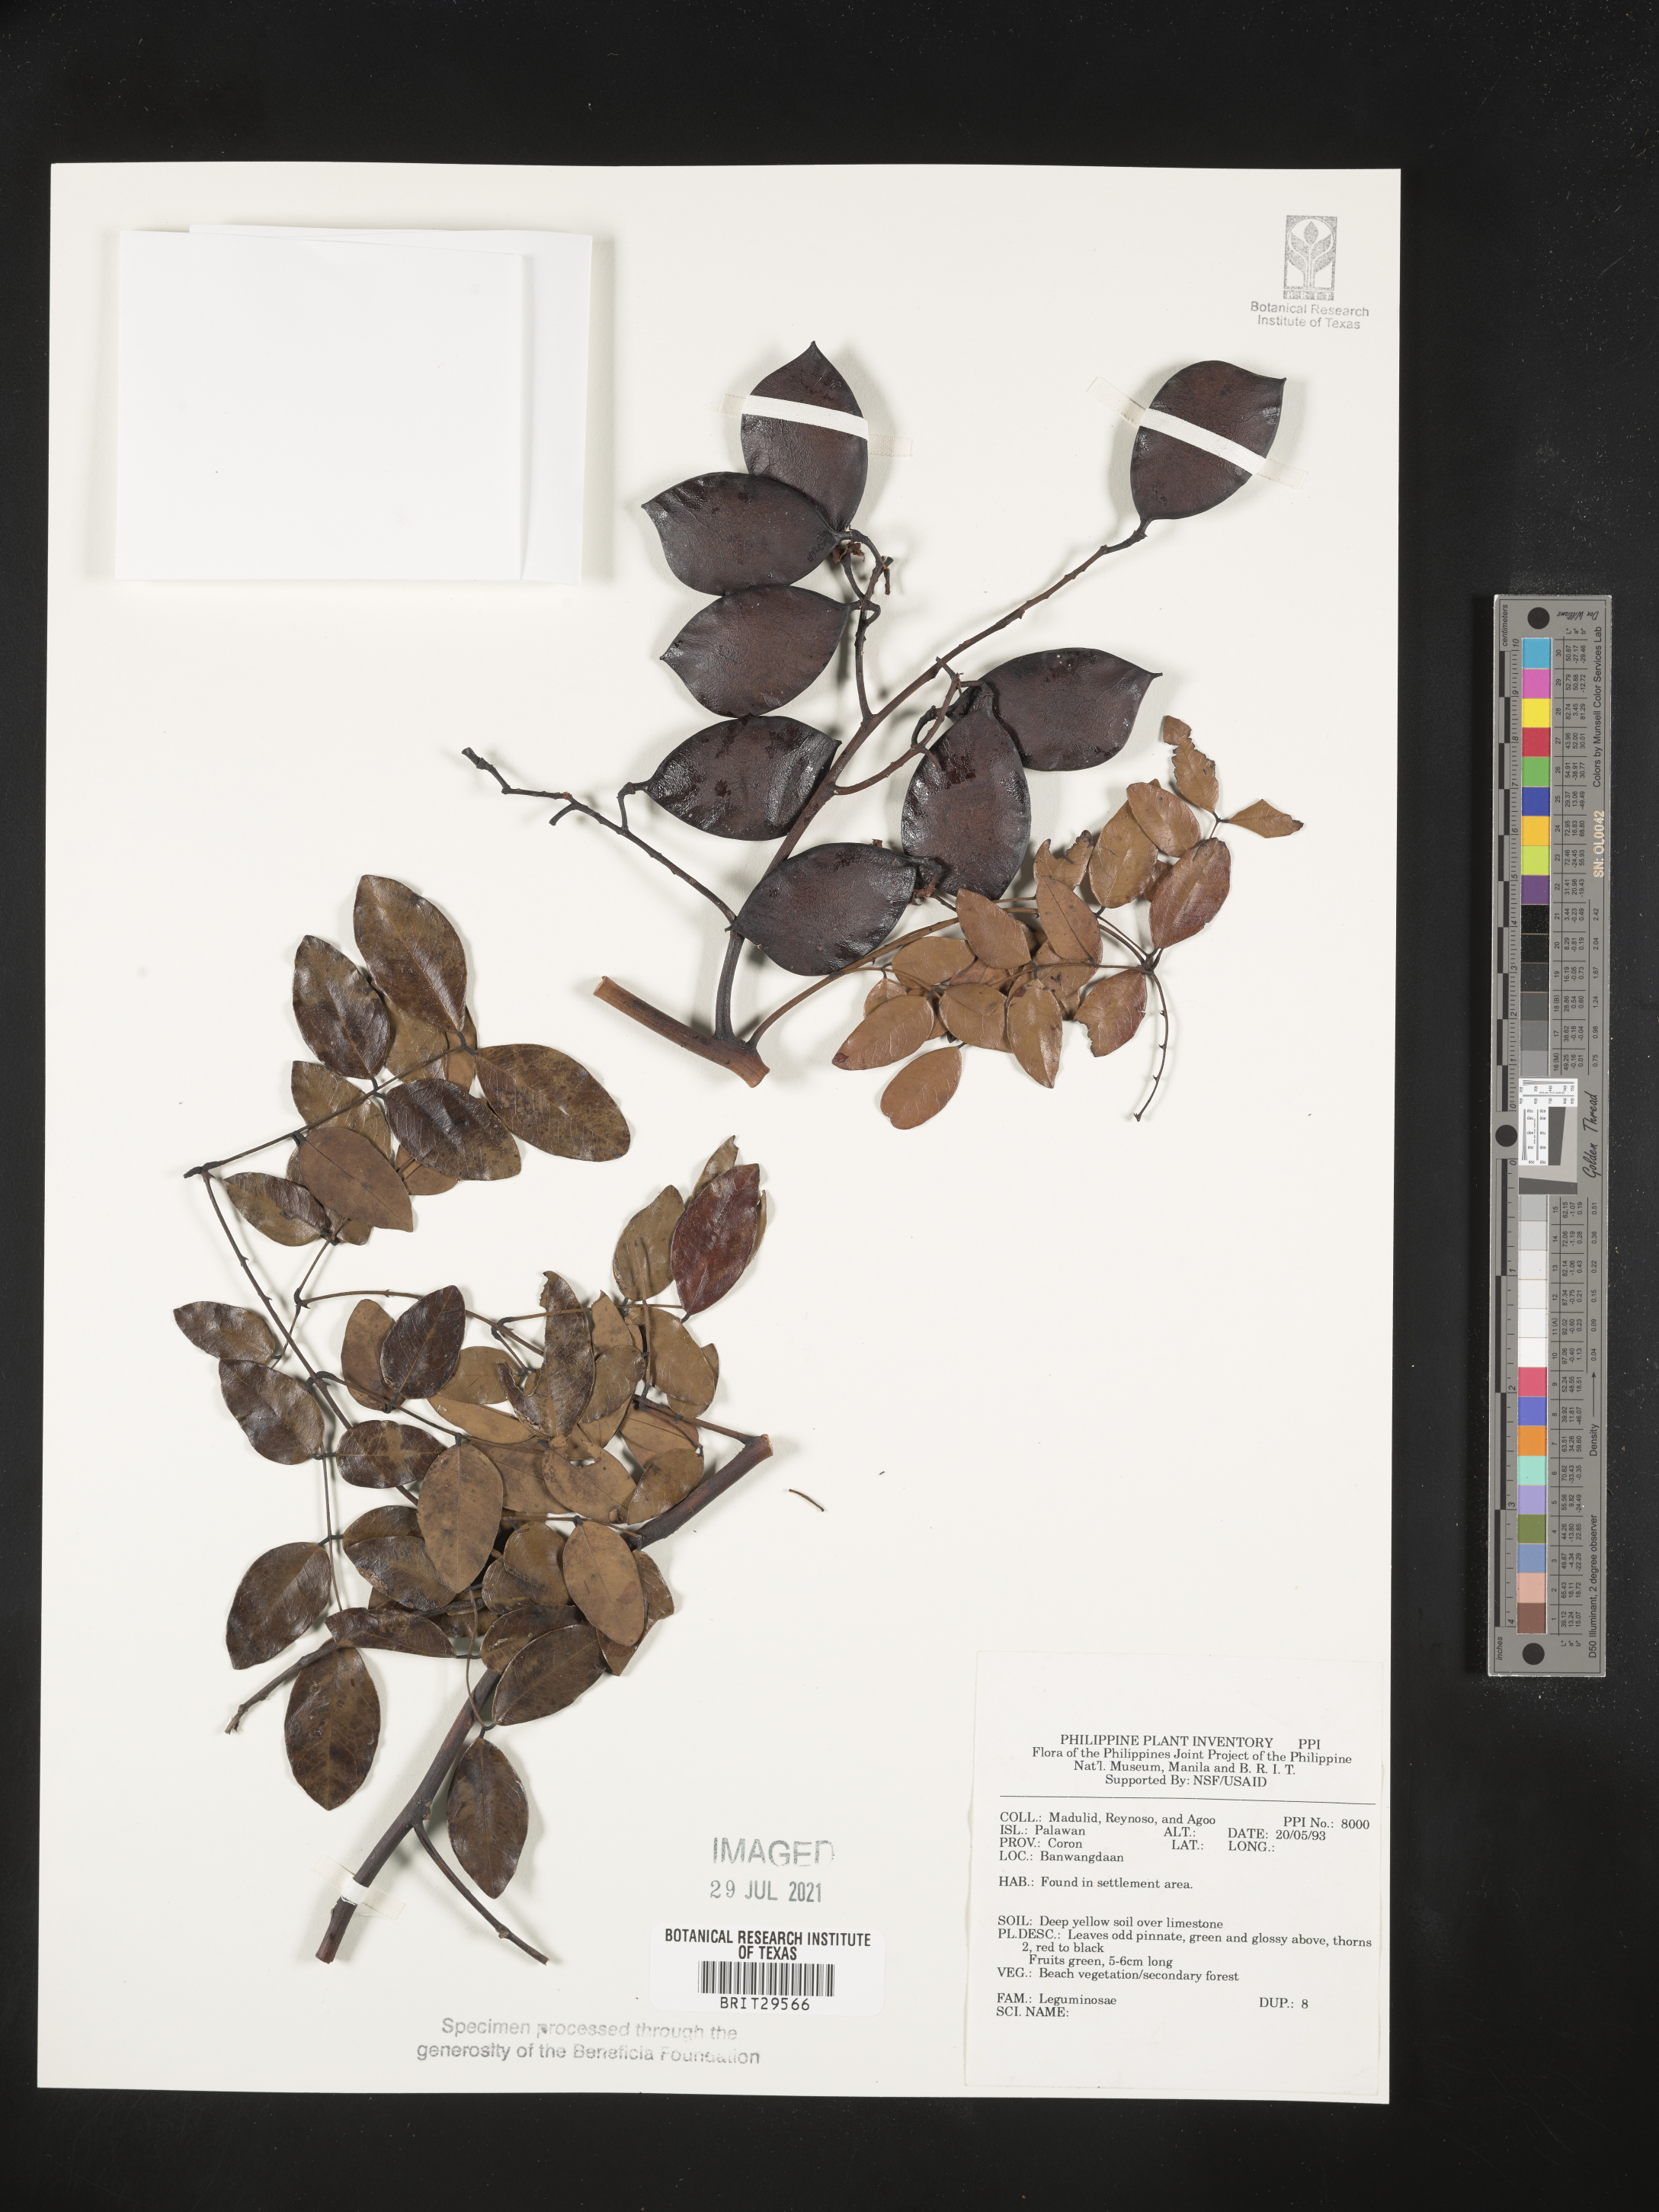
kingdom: Plantae
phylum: Tracheophyta
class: Magnoliopsida
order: Fabales
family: Fabaceae
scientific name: Fabaceae
